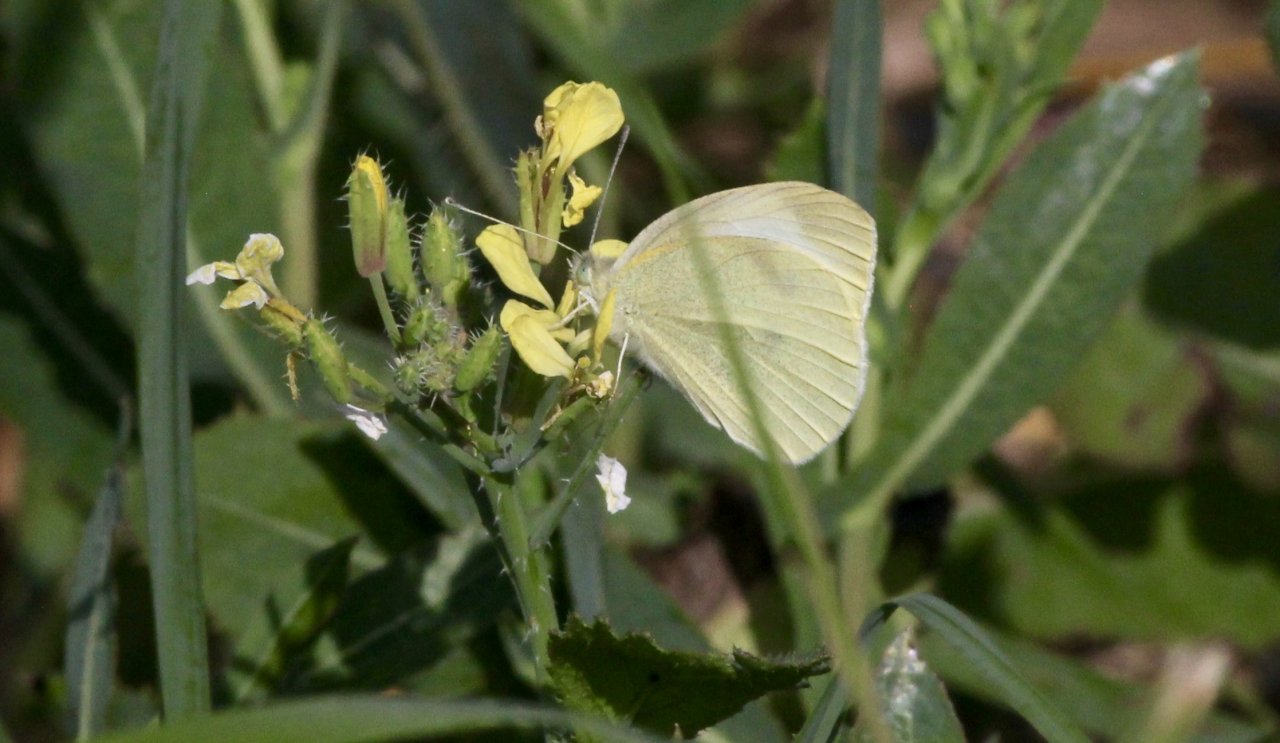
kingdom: Animalia
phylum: Arthropoda
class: Insecta
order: Lepidoptera
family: Pieridae
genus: Pieris
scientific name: Pieris rapae
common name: Cabbage White
